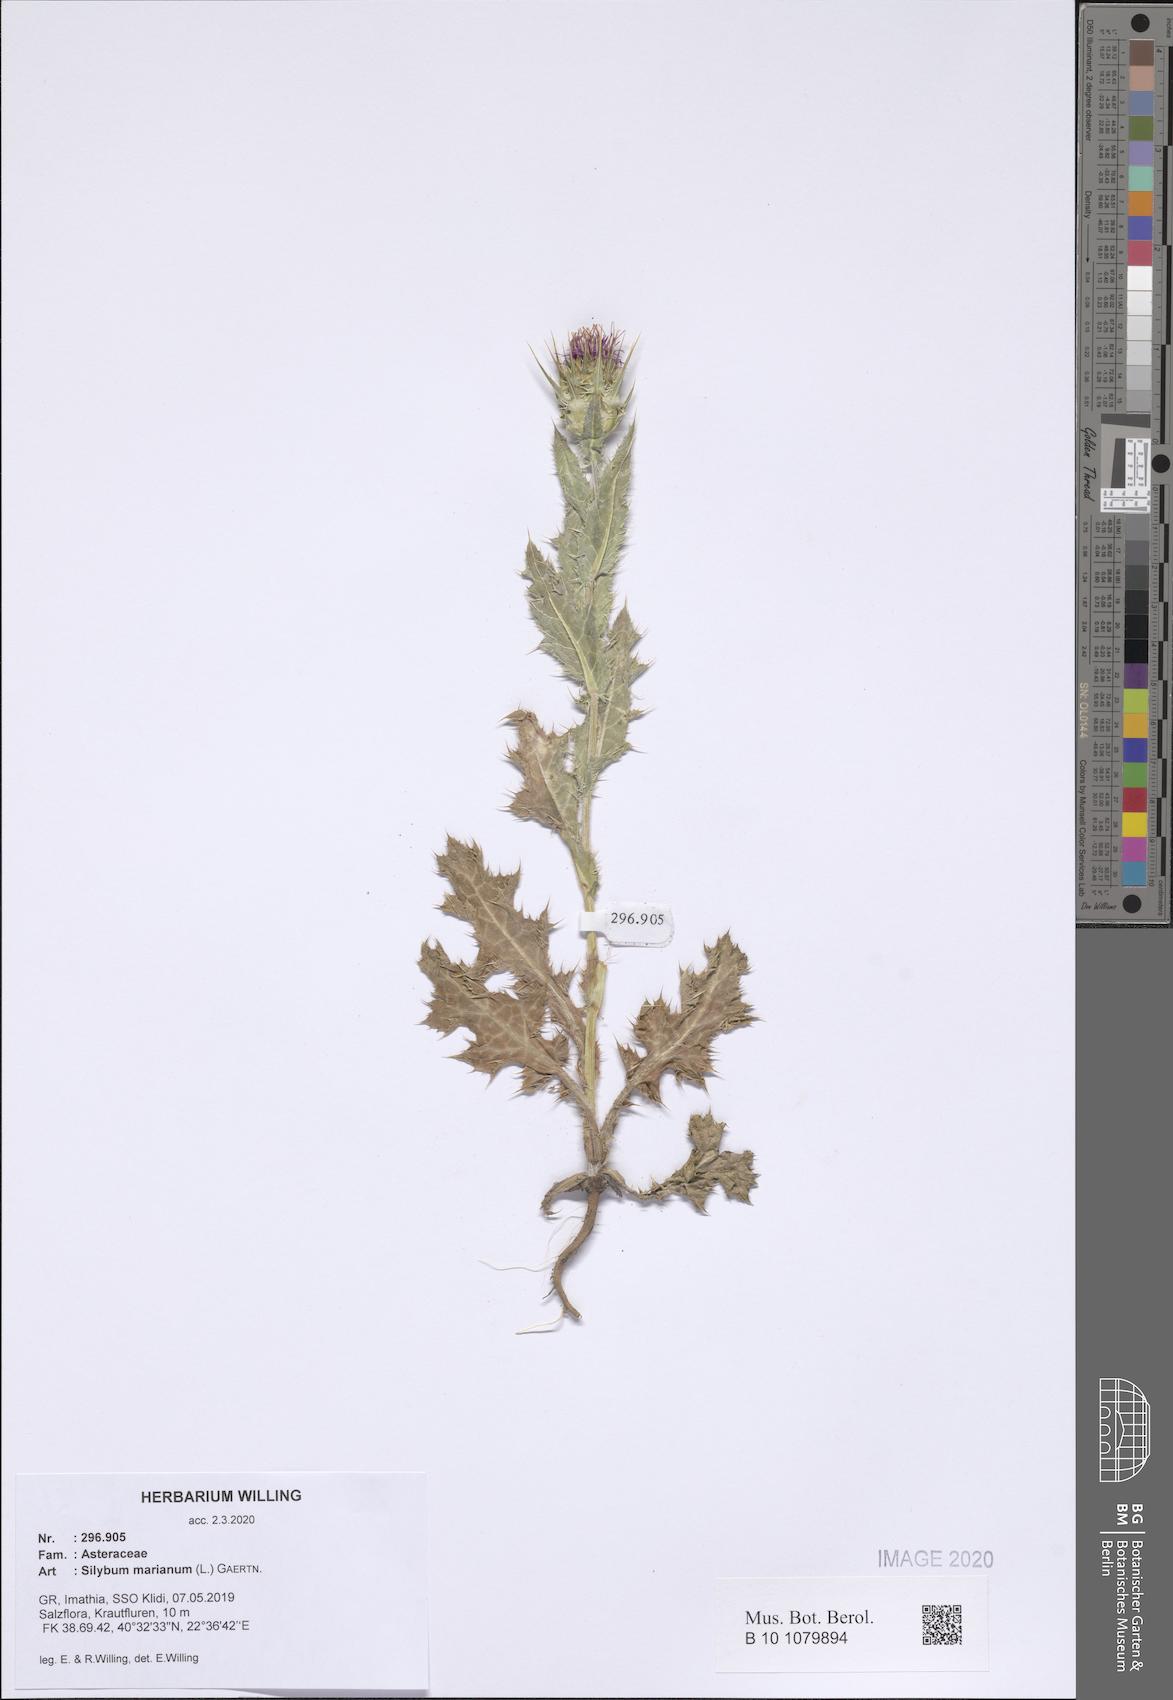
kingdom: Plantae
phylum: Tracheophyta
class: Magnoliopsida
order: Asterales
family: Asteraceae
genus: Silybum
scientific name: Silybum marianum
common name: Milk thistle
